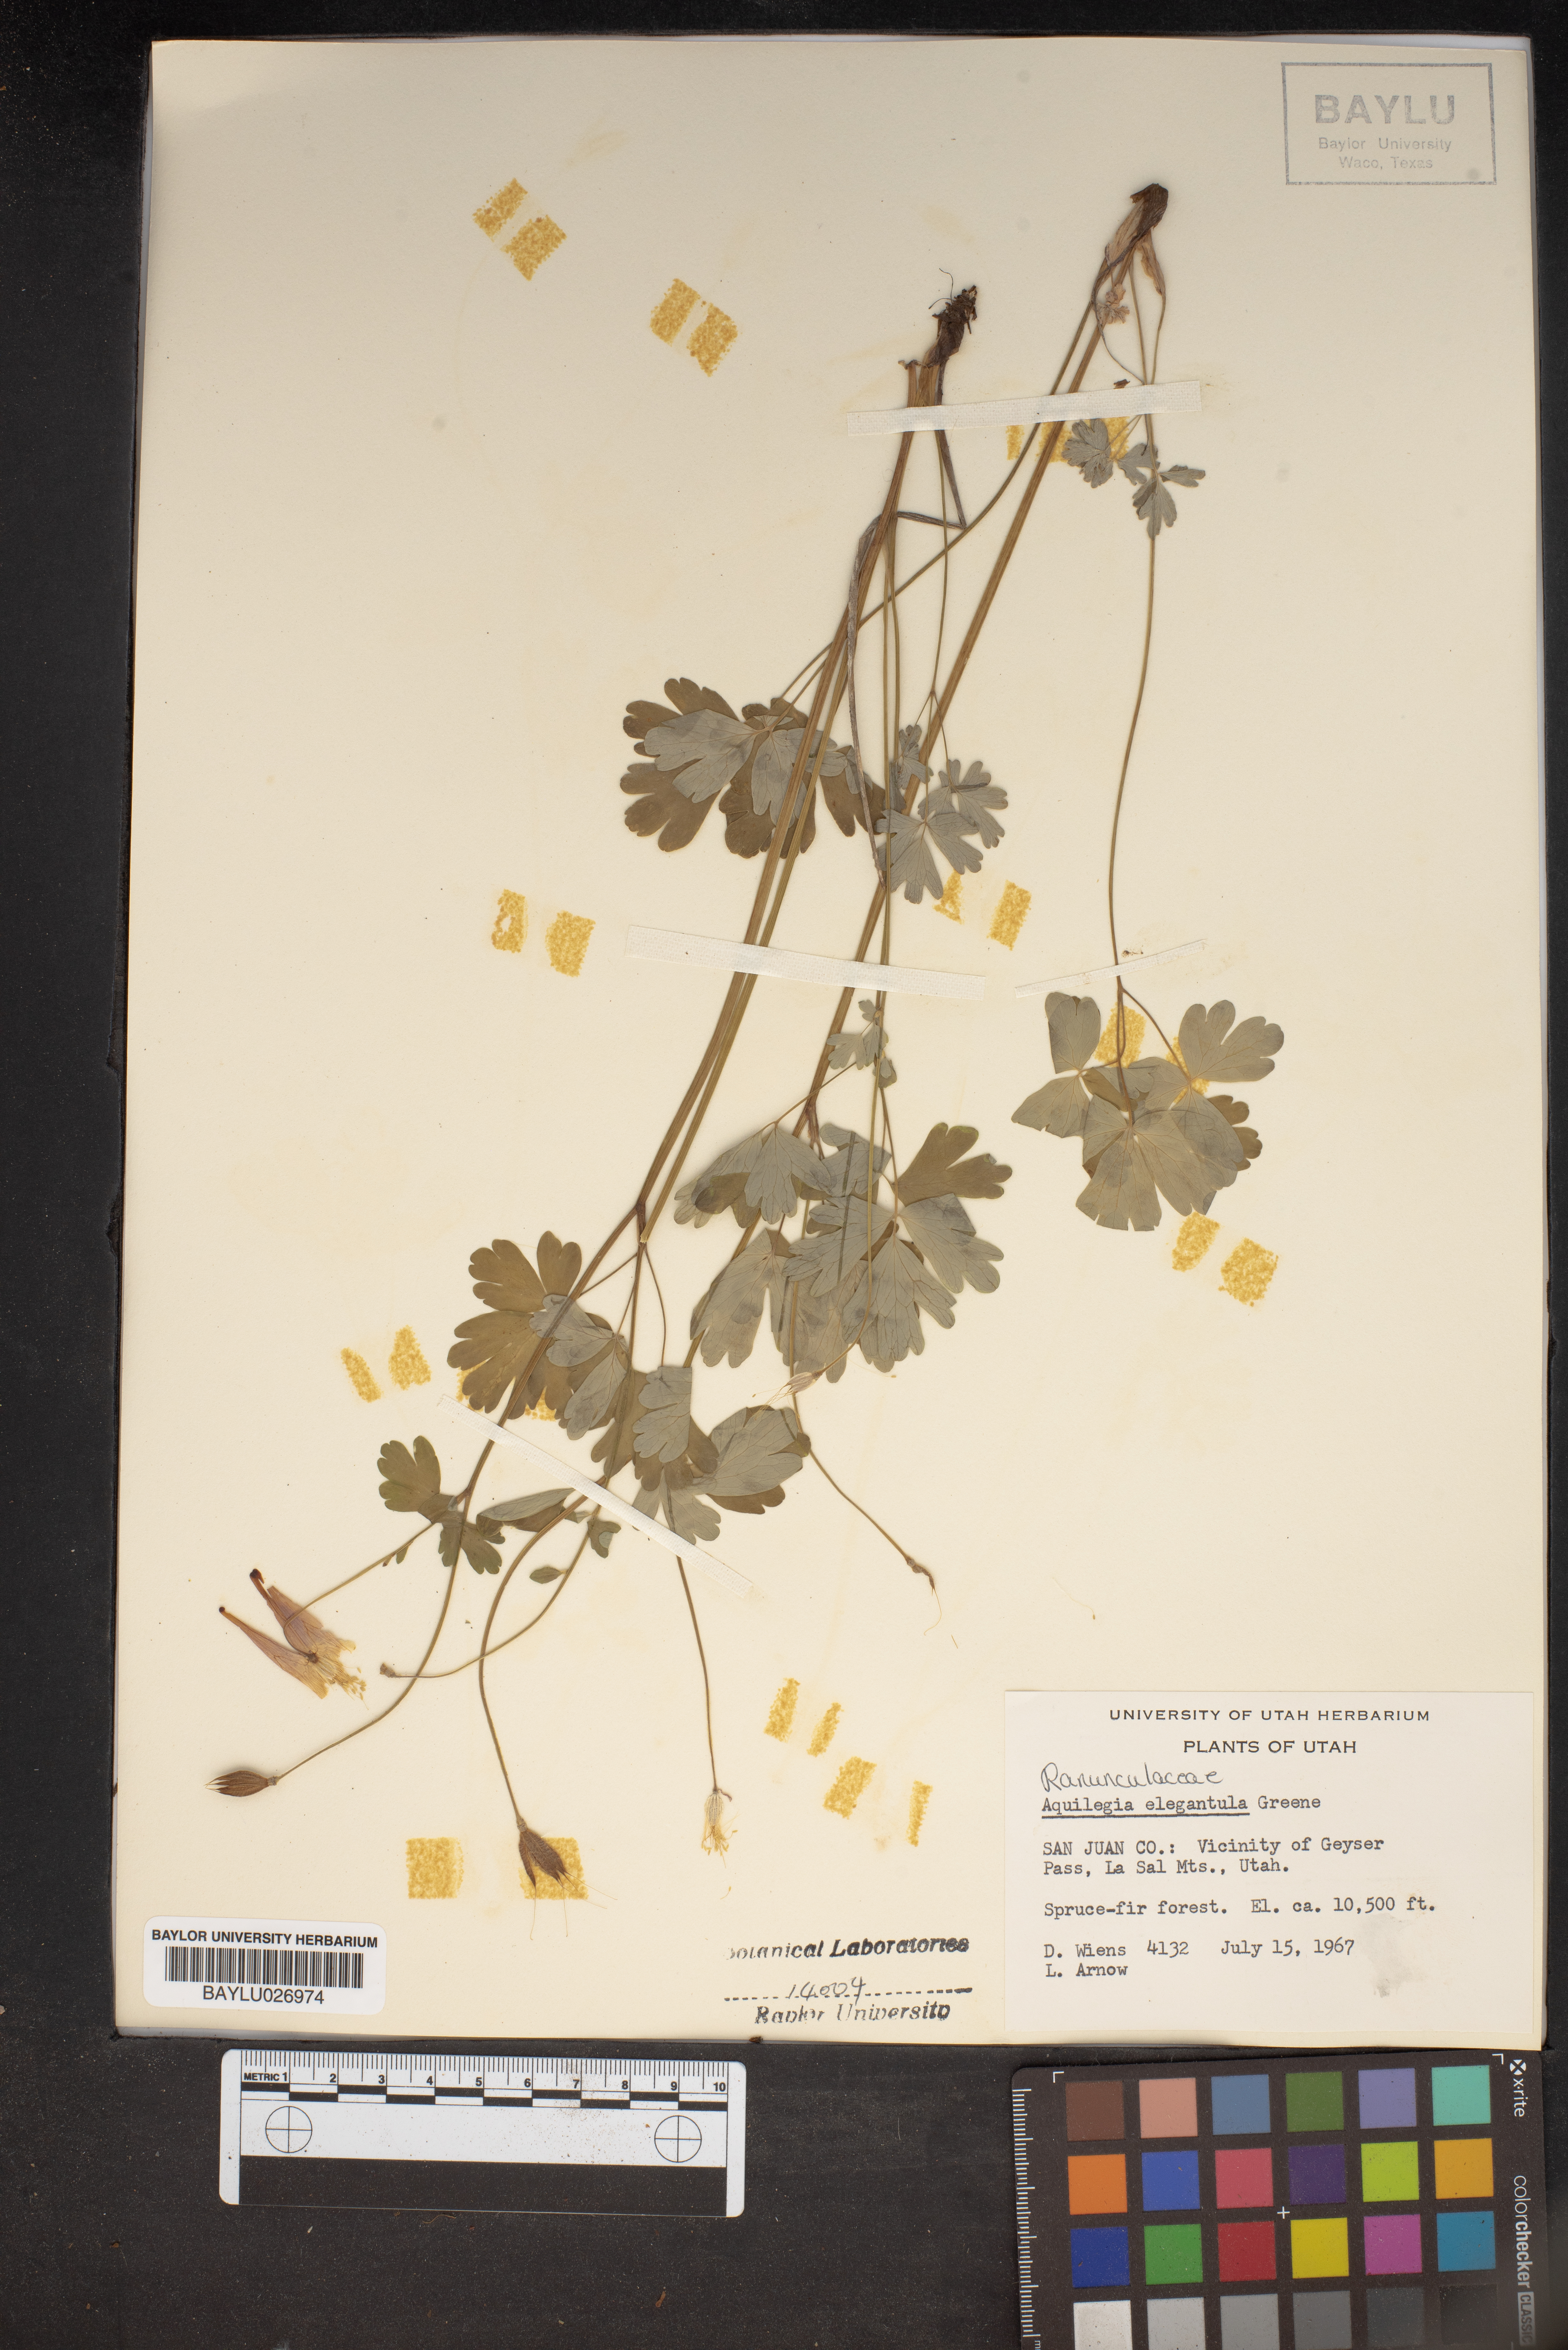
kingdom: Plantae
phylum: Tracheophyta
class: Magnoliopsida
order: Ranunculales
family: Ranunculaceae
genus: Aquilegia
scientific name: Aquilegia elegantula
